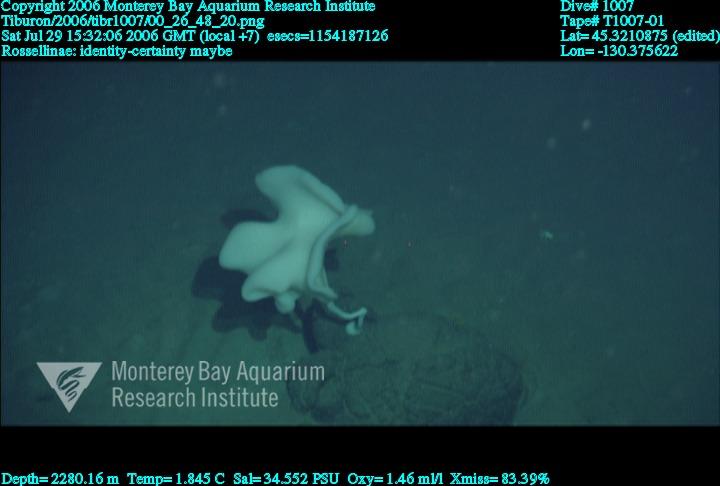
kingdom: Animalia
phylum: Porifera
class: Hexactinellida
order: Lyssacinosida
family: Rossellidae
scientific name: Rossellidae
